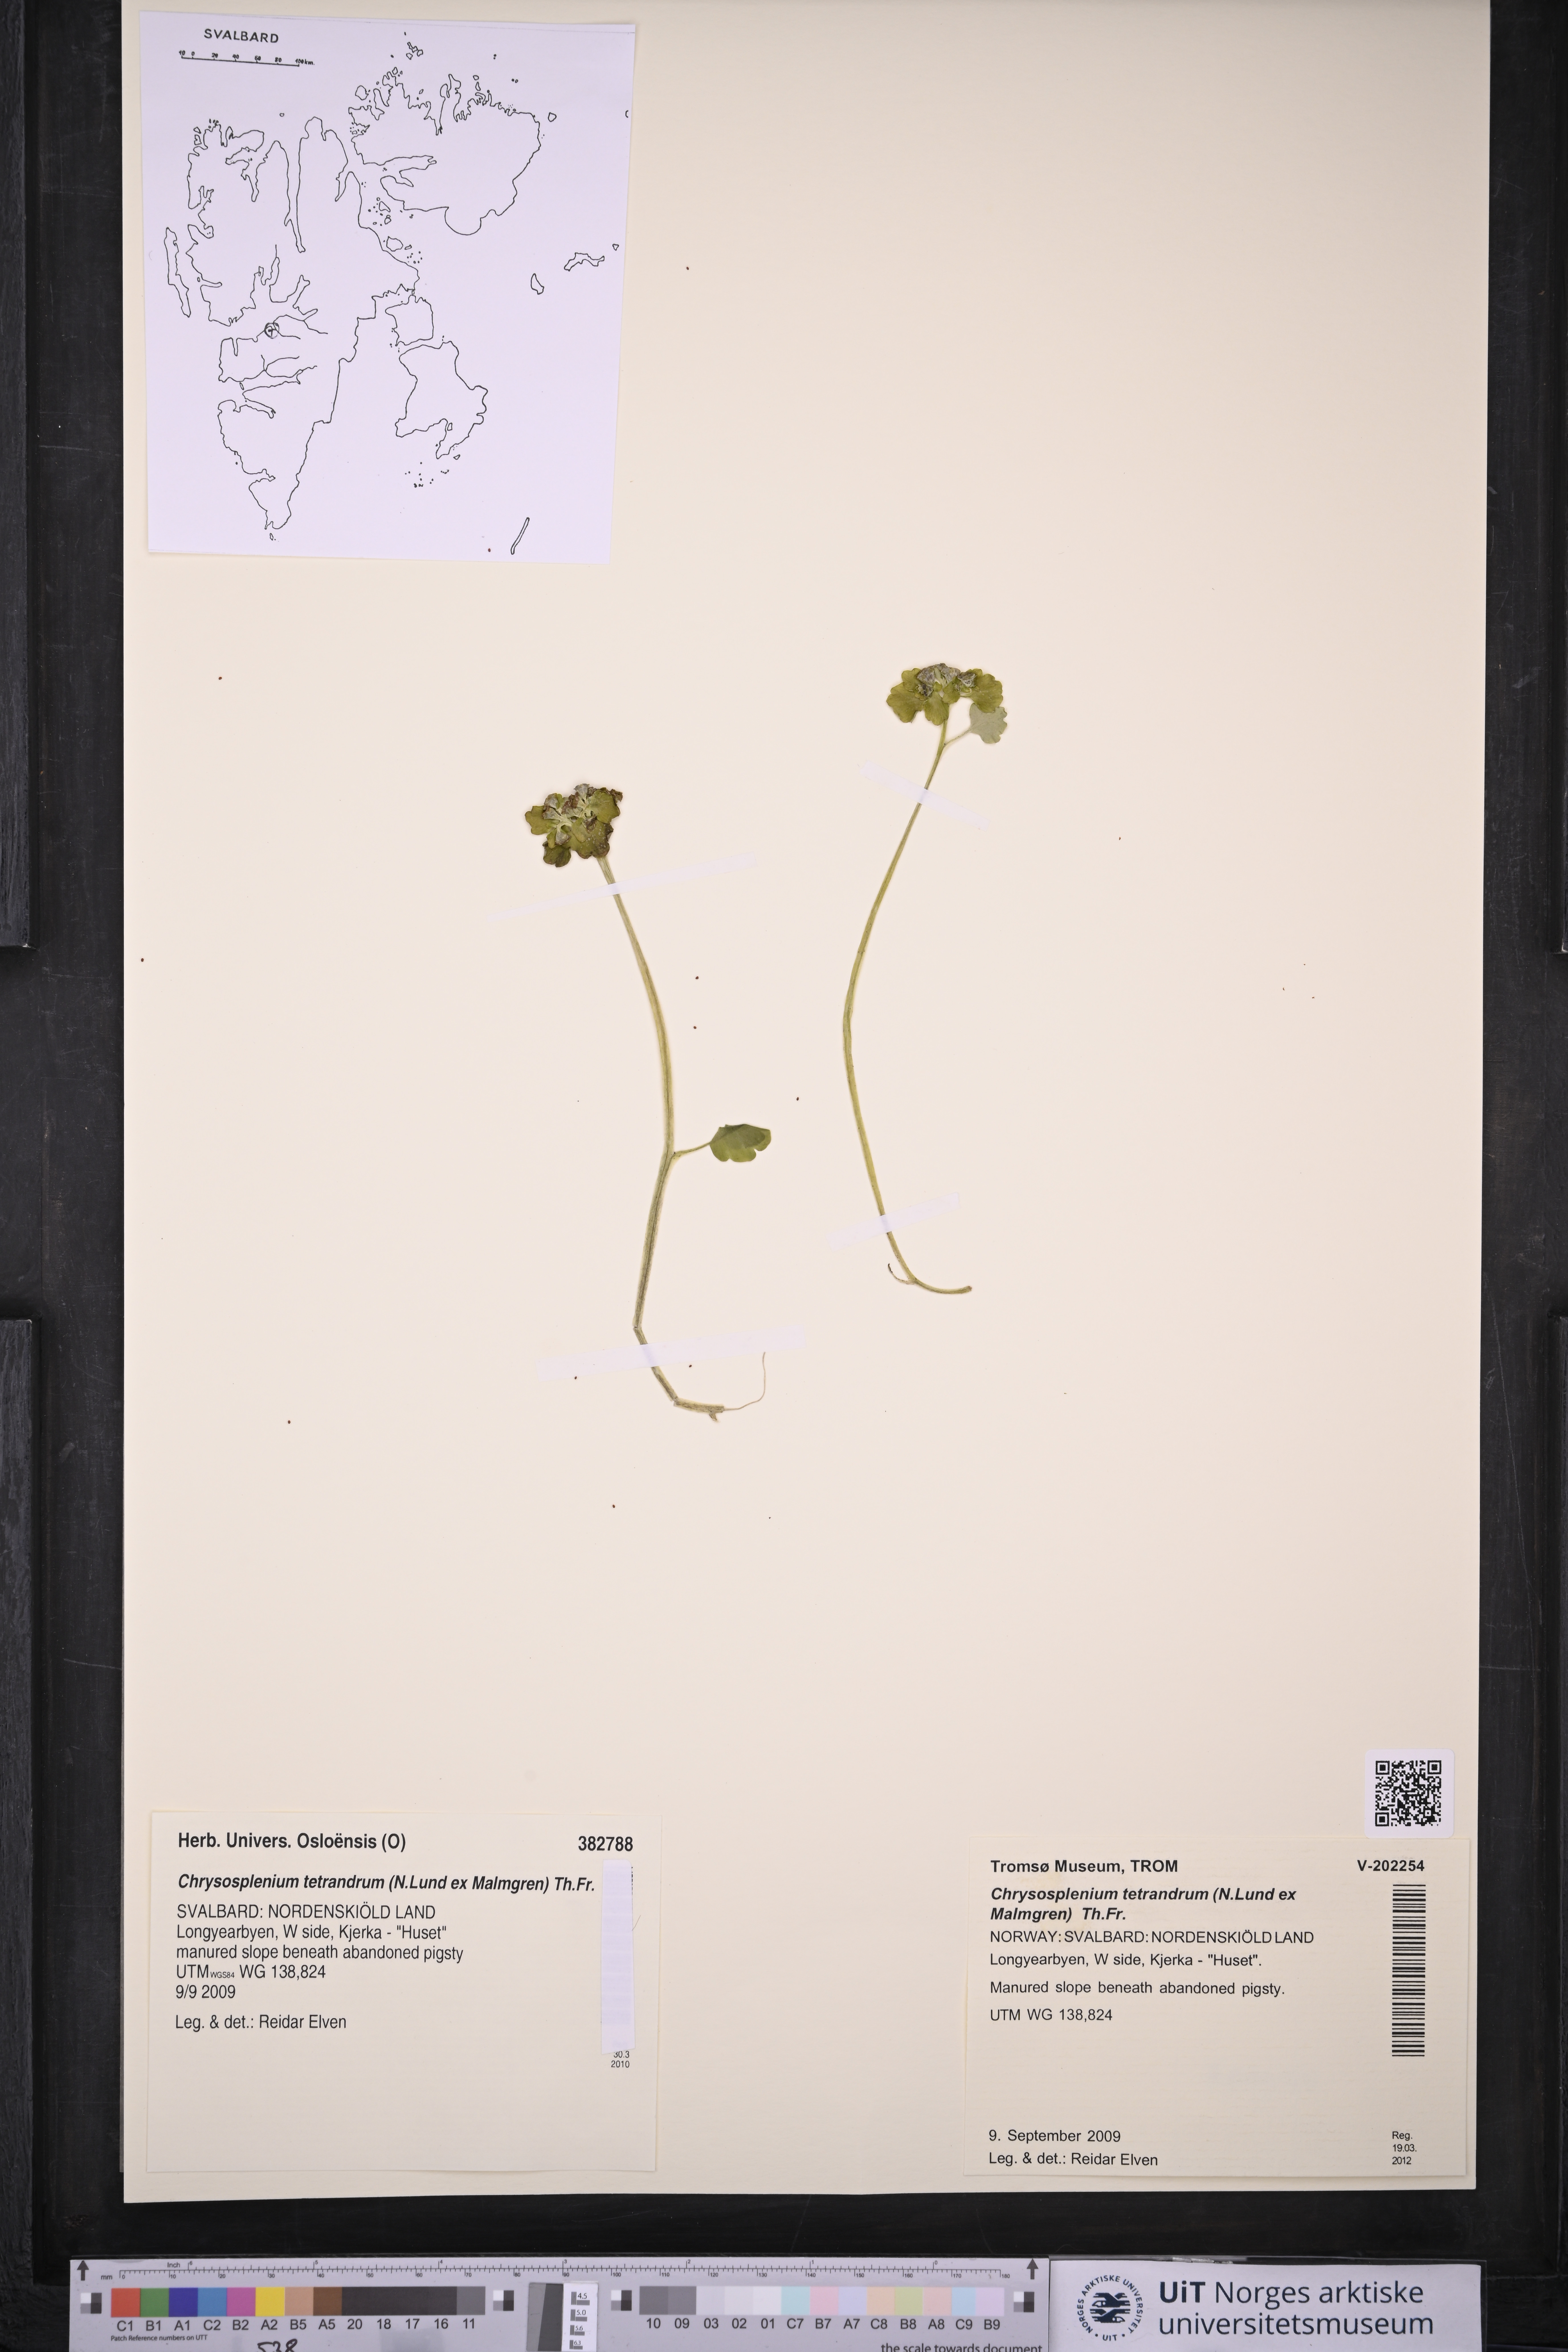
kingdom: Plantae
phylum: Tracheophyta
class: Magnoliopsida
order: Saxifragales
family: Saxifragaceae
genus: Chrysosplenium
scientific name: Chrysosplenium tetrandrum
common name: Green saxifrage
